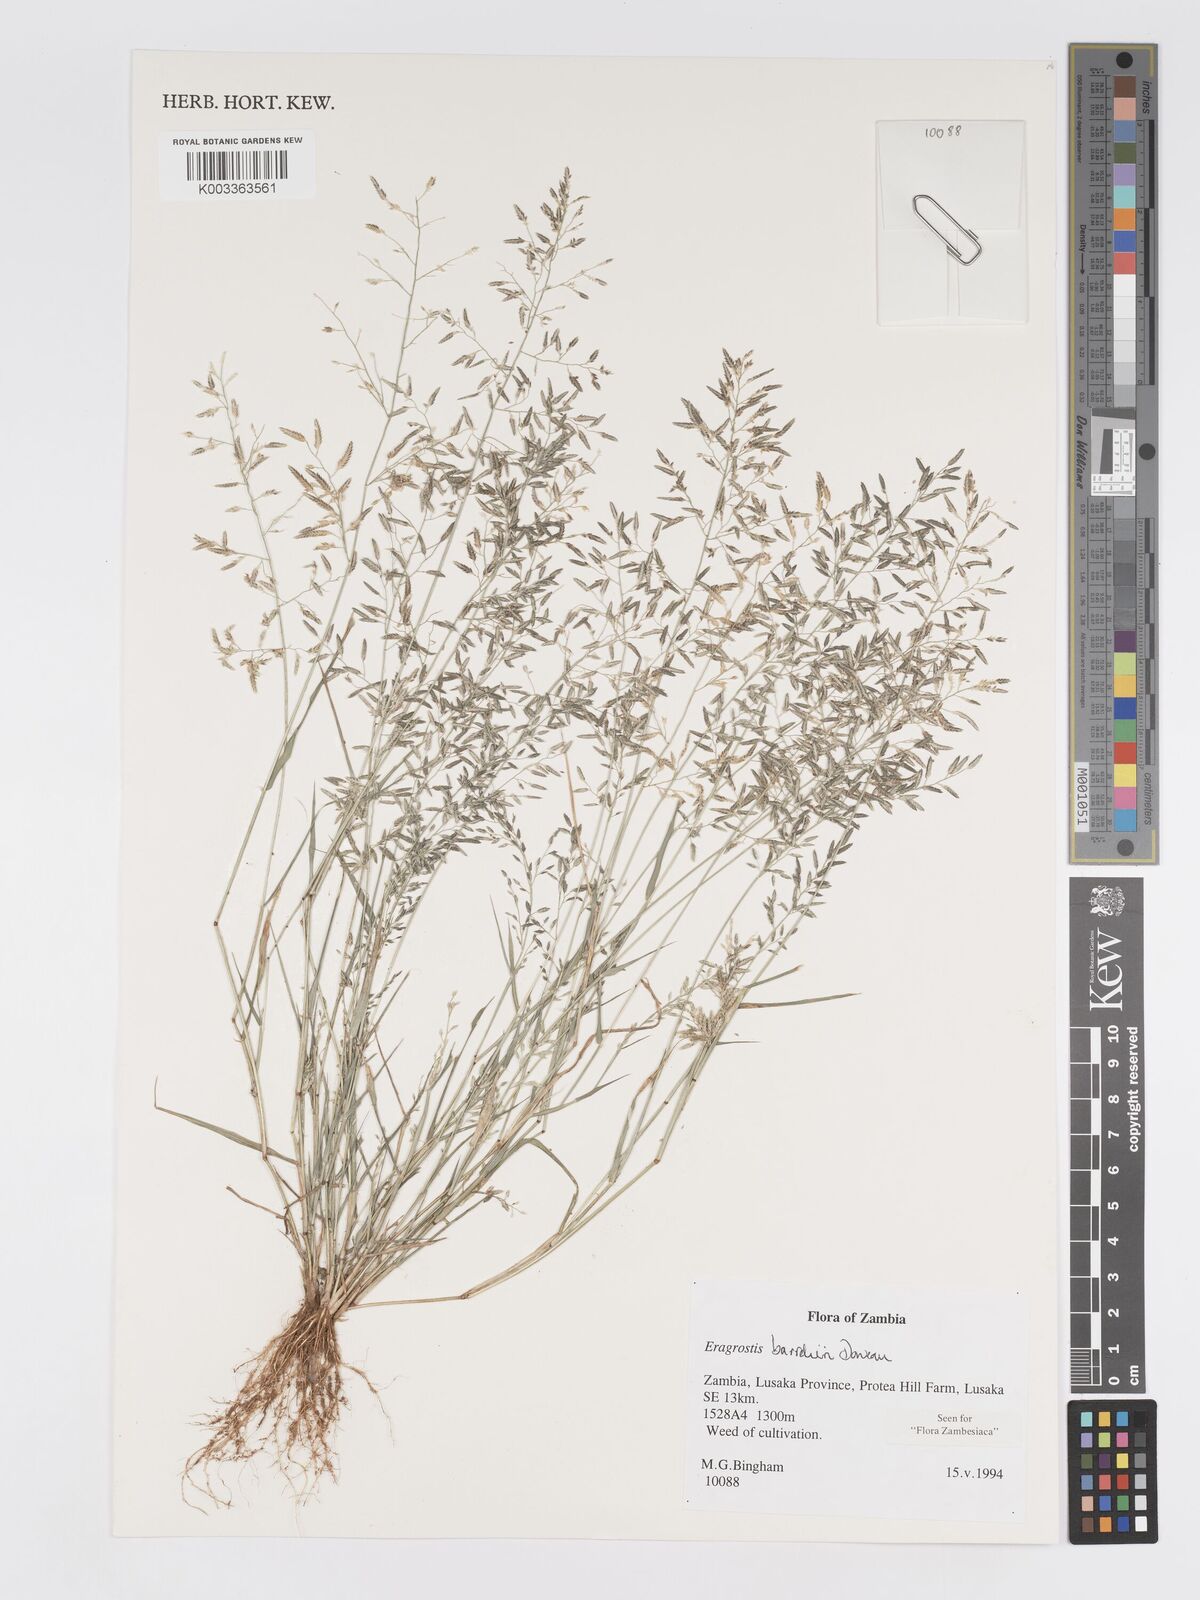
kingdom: Plantae
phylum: Tracheophyta
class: Liliopsida
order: Poales
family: Poaceae
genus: Eragrostis
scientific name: Eragrostis barrelieri
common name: Mediterranean lovegrass
